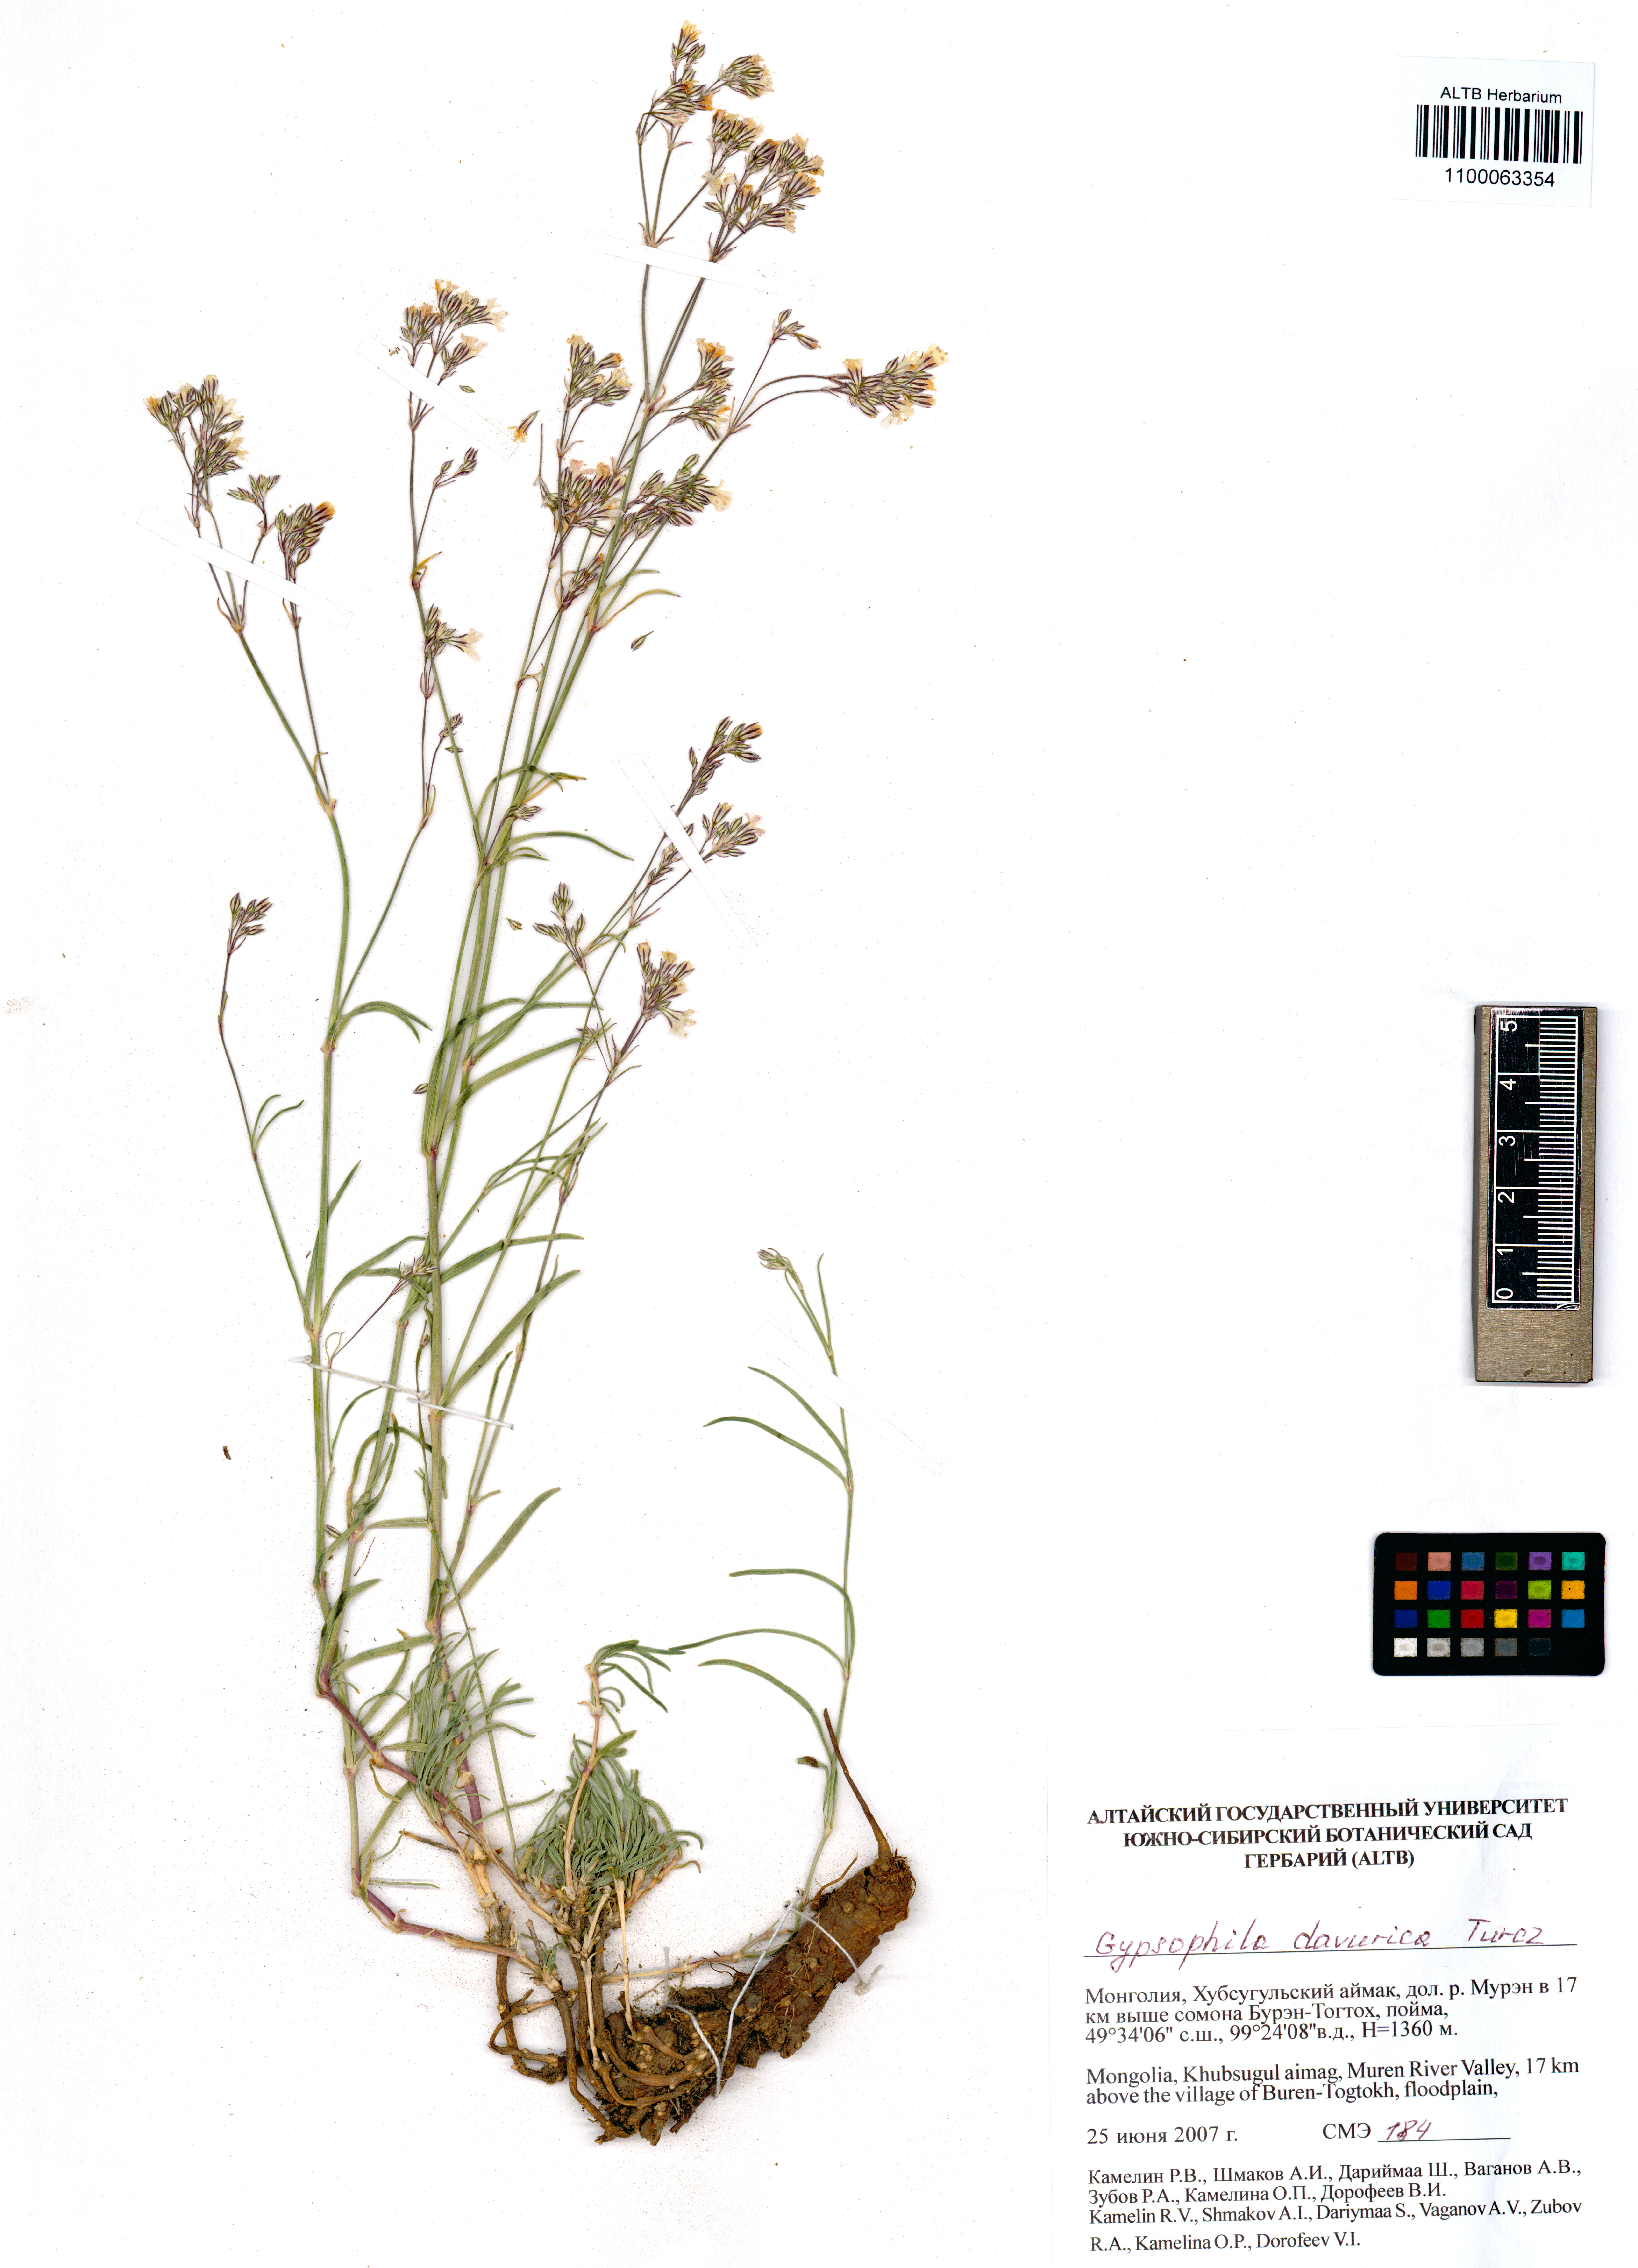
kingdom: Plantae
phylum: Tracheophyta
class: Magnoliopsida
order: Caryophyllales
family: Caryophyllaceae
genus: Gypsophila
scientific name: Gypsophila davurica
